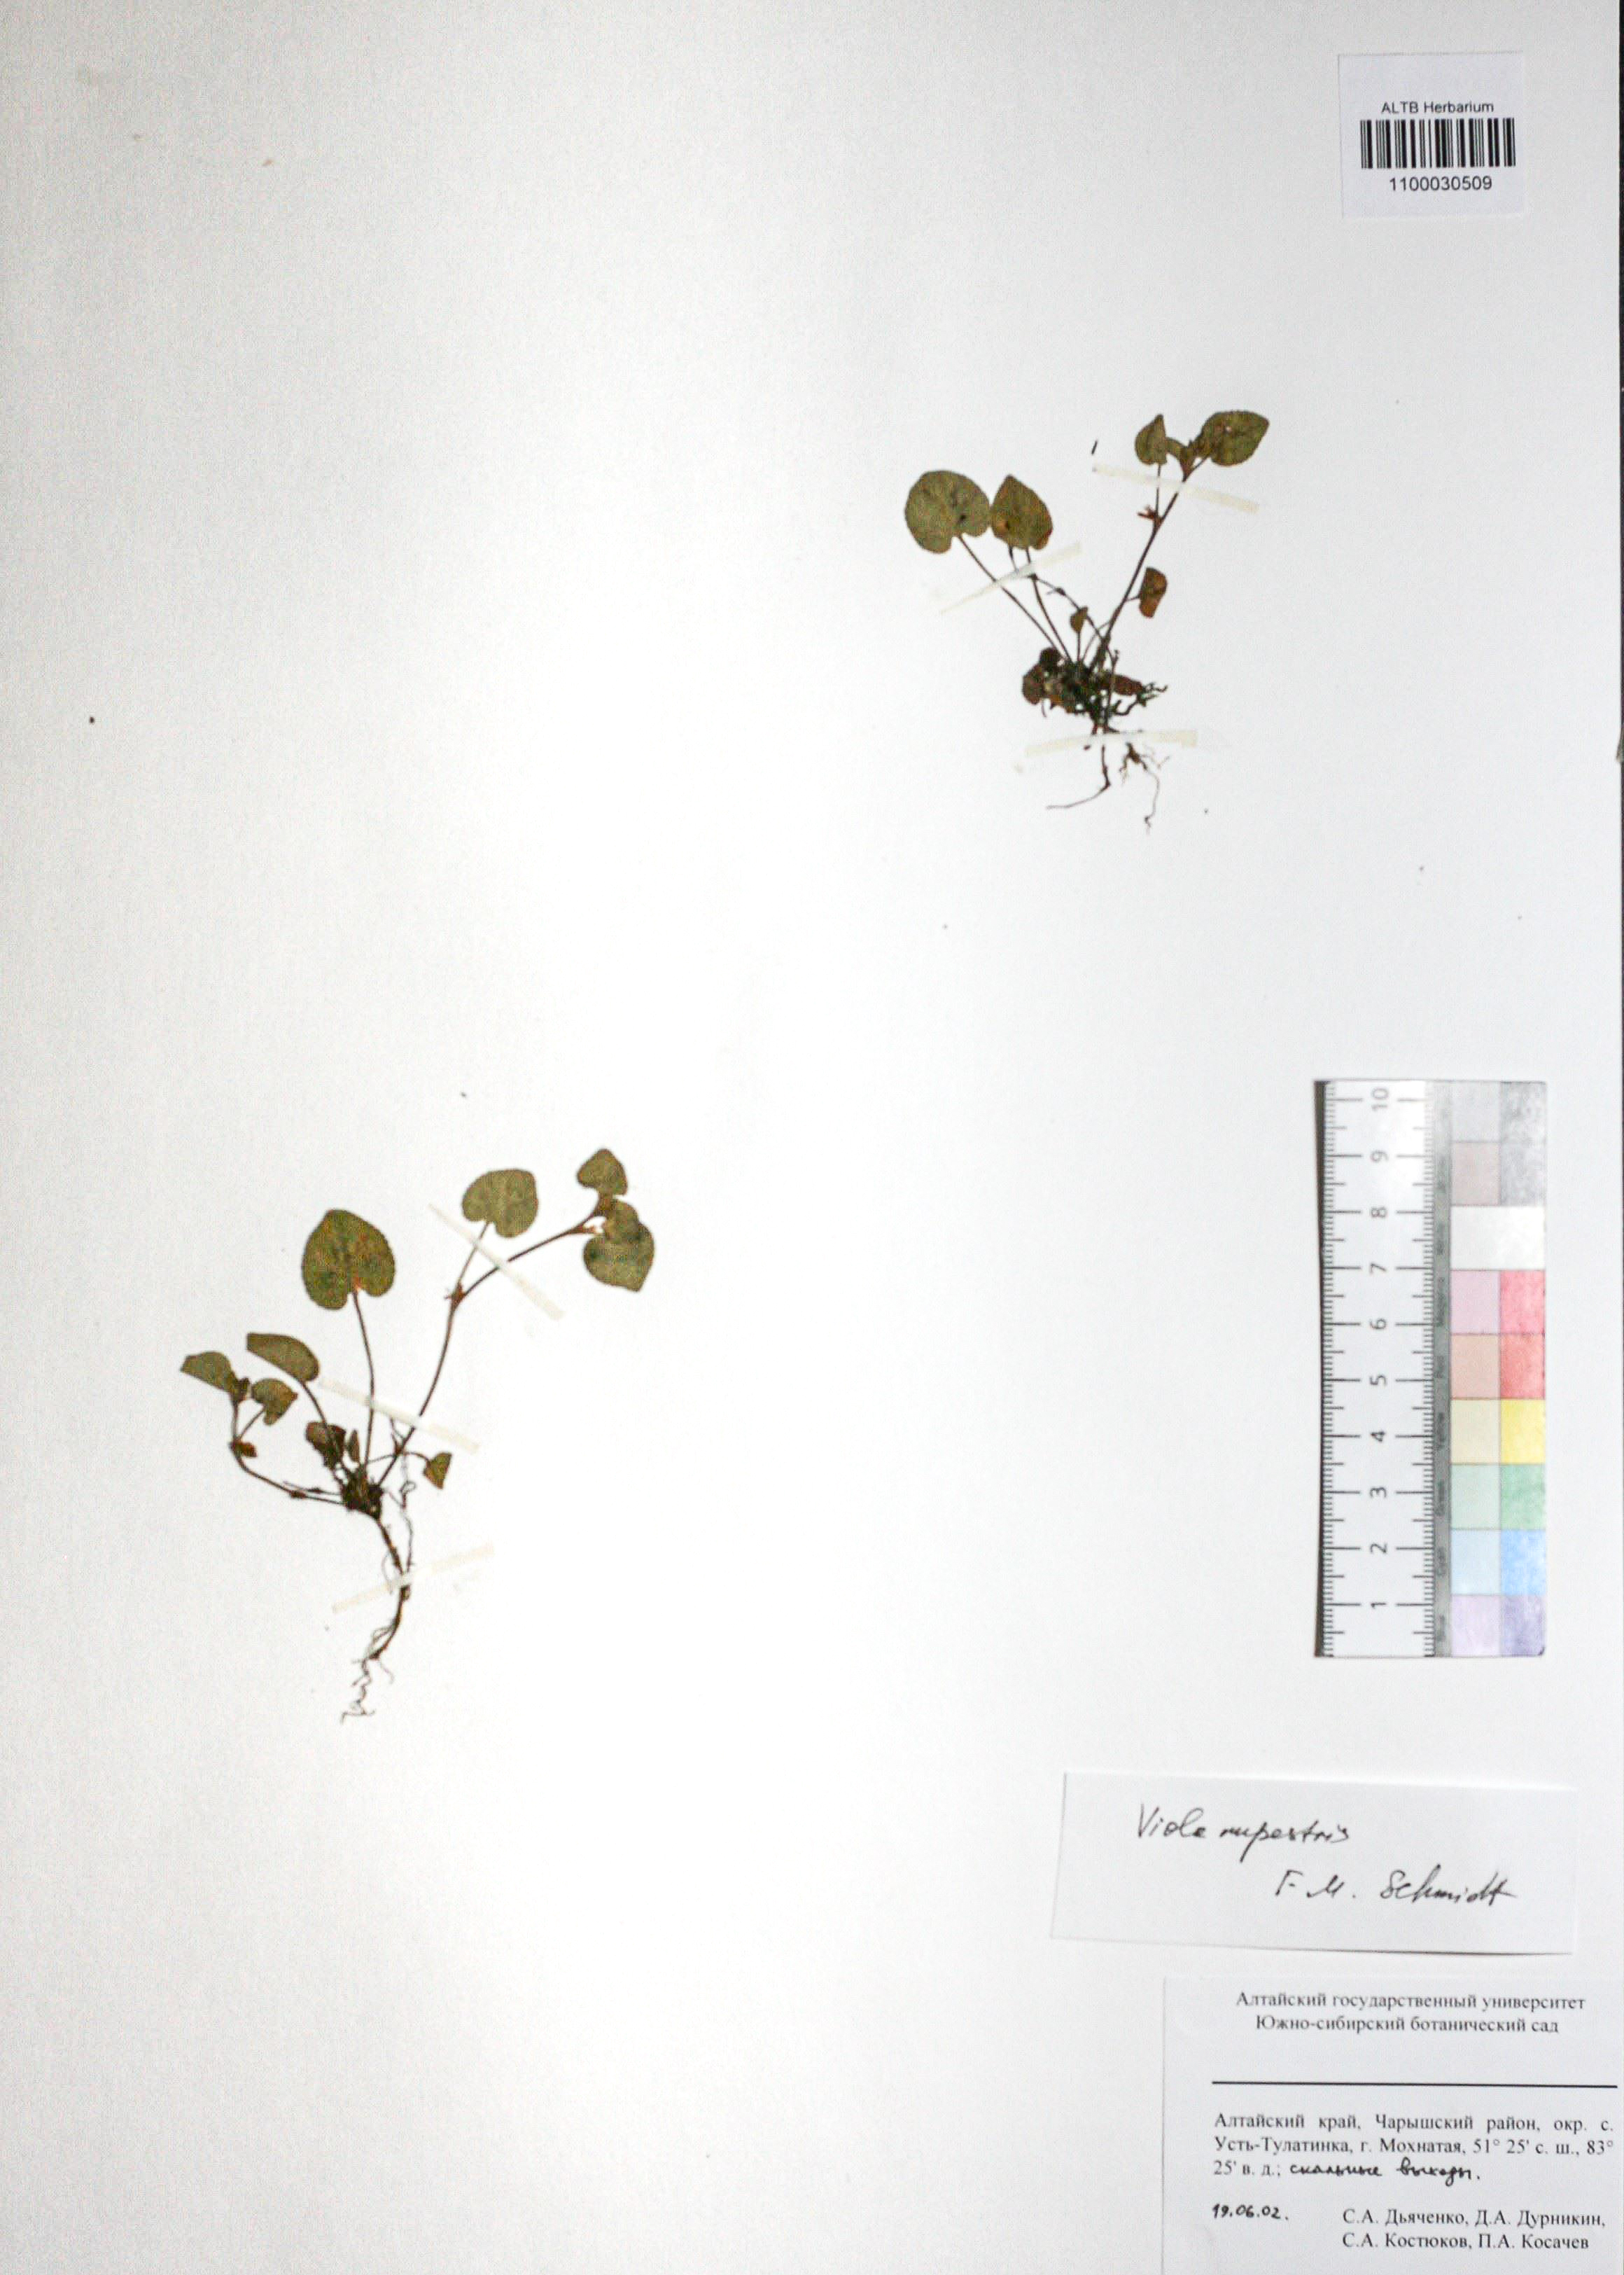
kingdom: Plantae
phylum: Tracheophyta
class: Magnoliopsida
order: Malpighiales
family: Violaceae
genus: Viola
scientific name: Viola rupestris
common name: Teesdale violet
